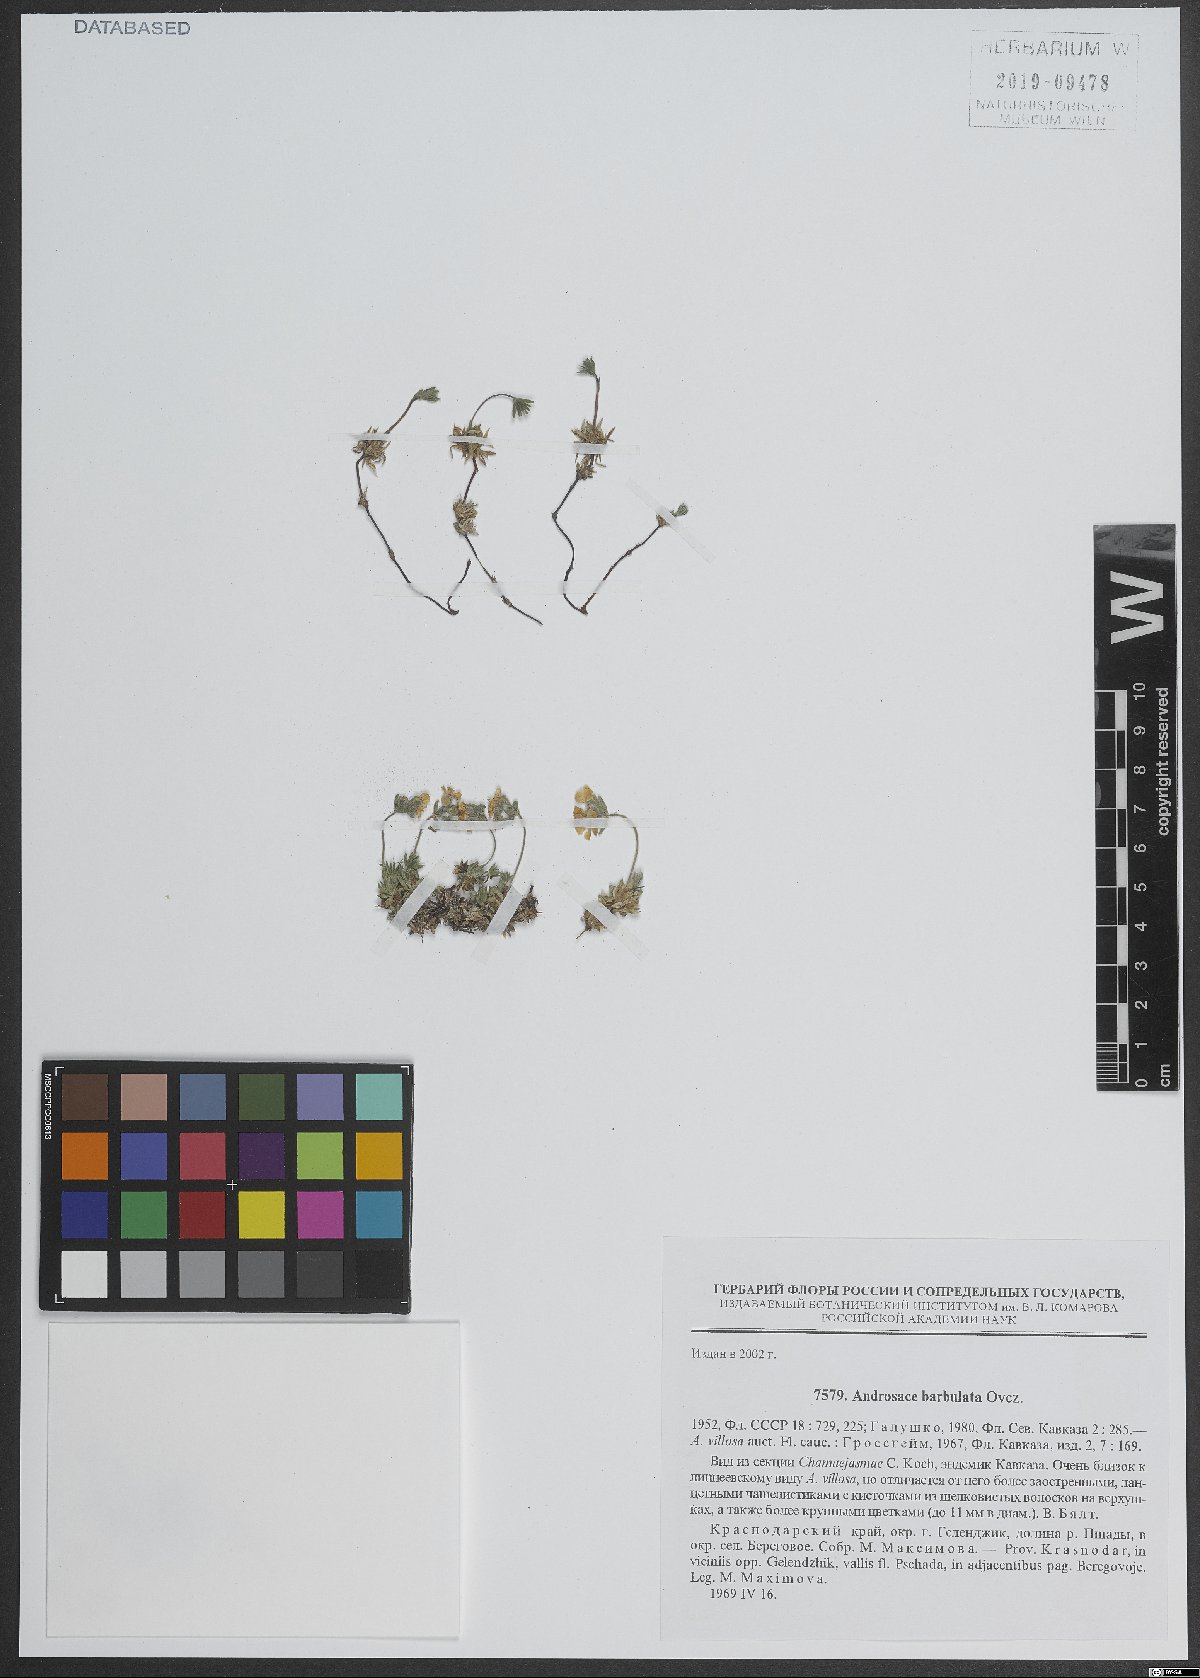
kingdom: Plantae
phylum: Tracheophyta
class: Magnoliopsida
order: Ericales
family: Primulaceae
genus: Androsace
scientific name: Androsace villosa
